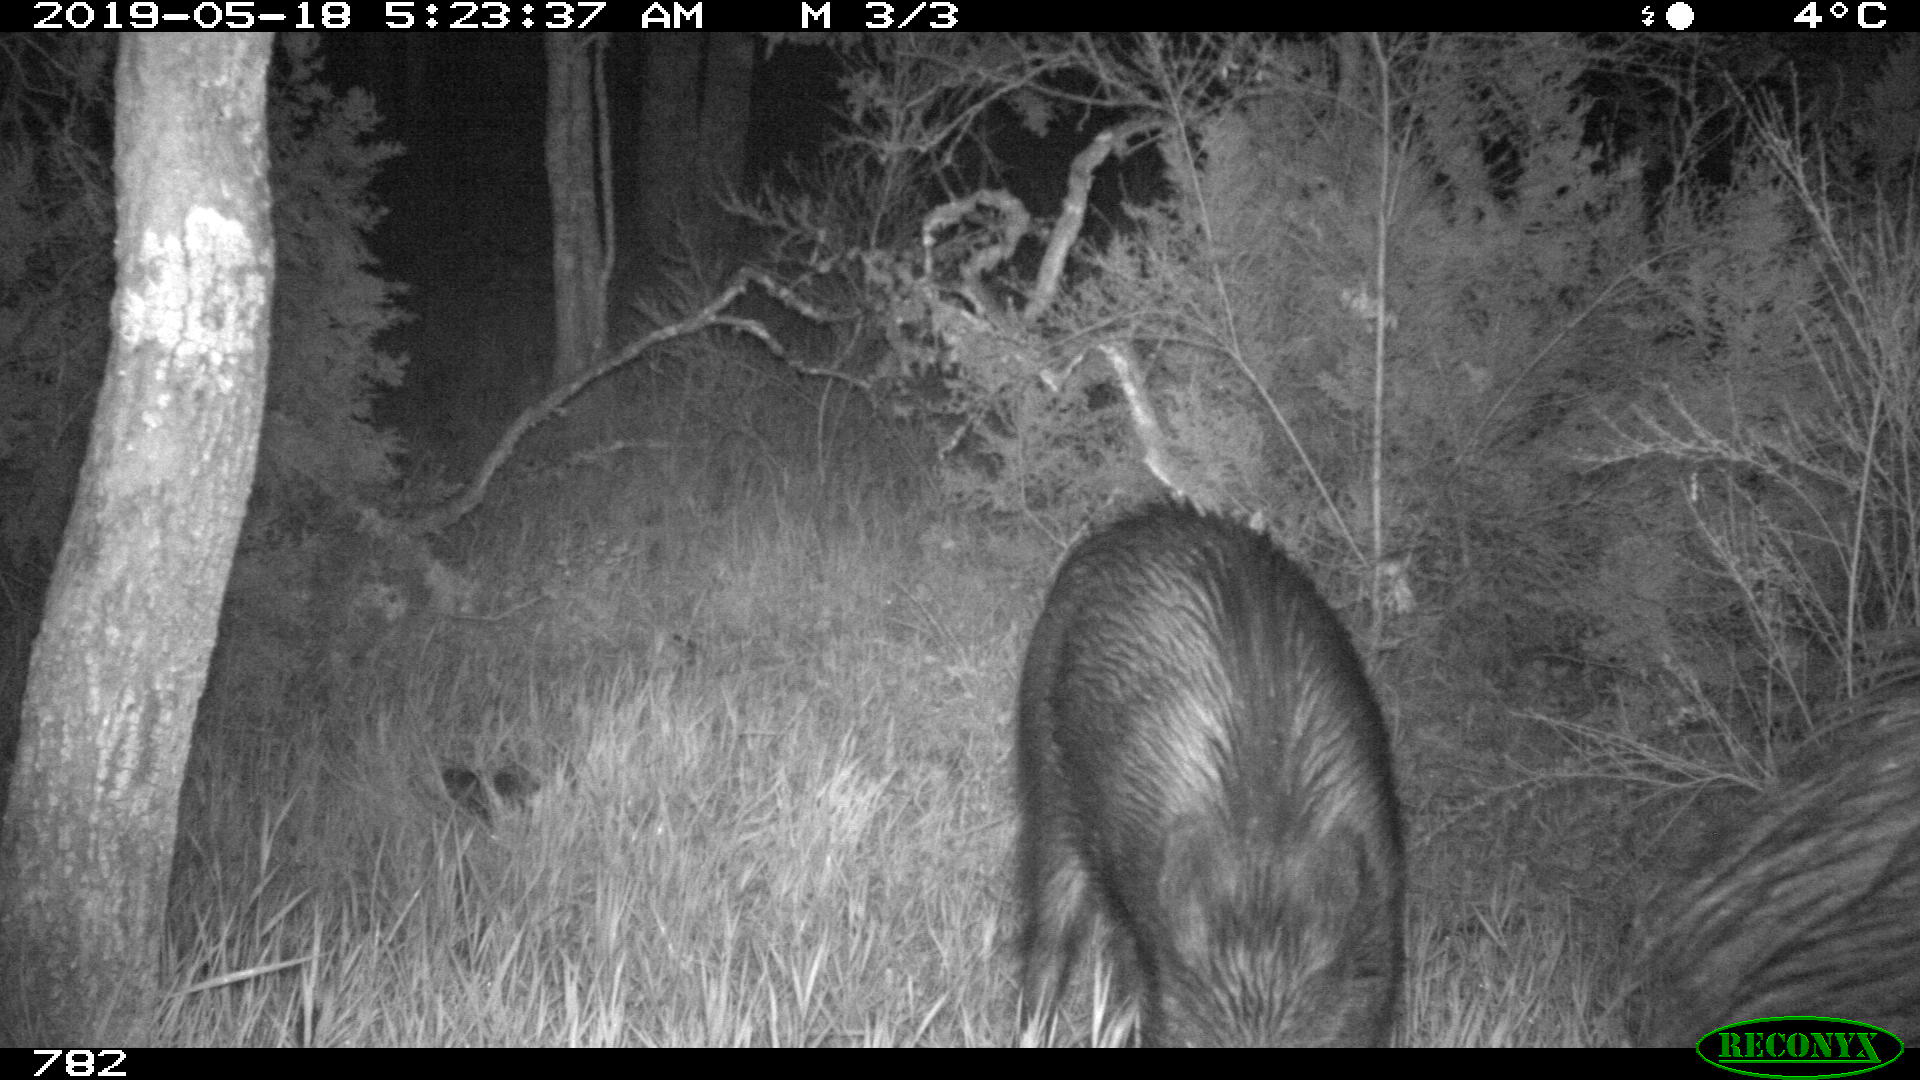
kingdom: Animalia
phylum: Chordata
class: Mammalia
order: Artiodactyla
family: Suidae
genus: Sus
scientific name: Sus scrofa
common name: Wild boar
